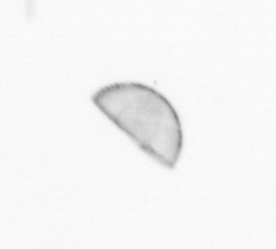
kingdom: Chromista
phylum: Ochrophyta
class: Bacillariophyceae
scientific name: Bacillariophyceae
